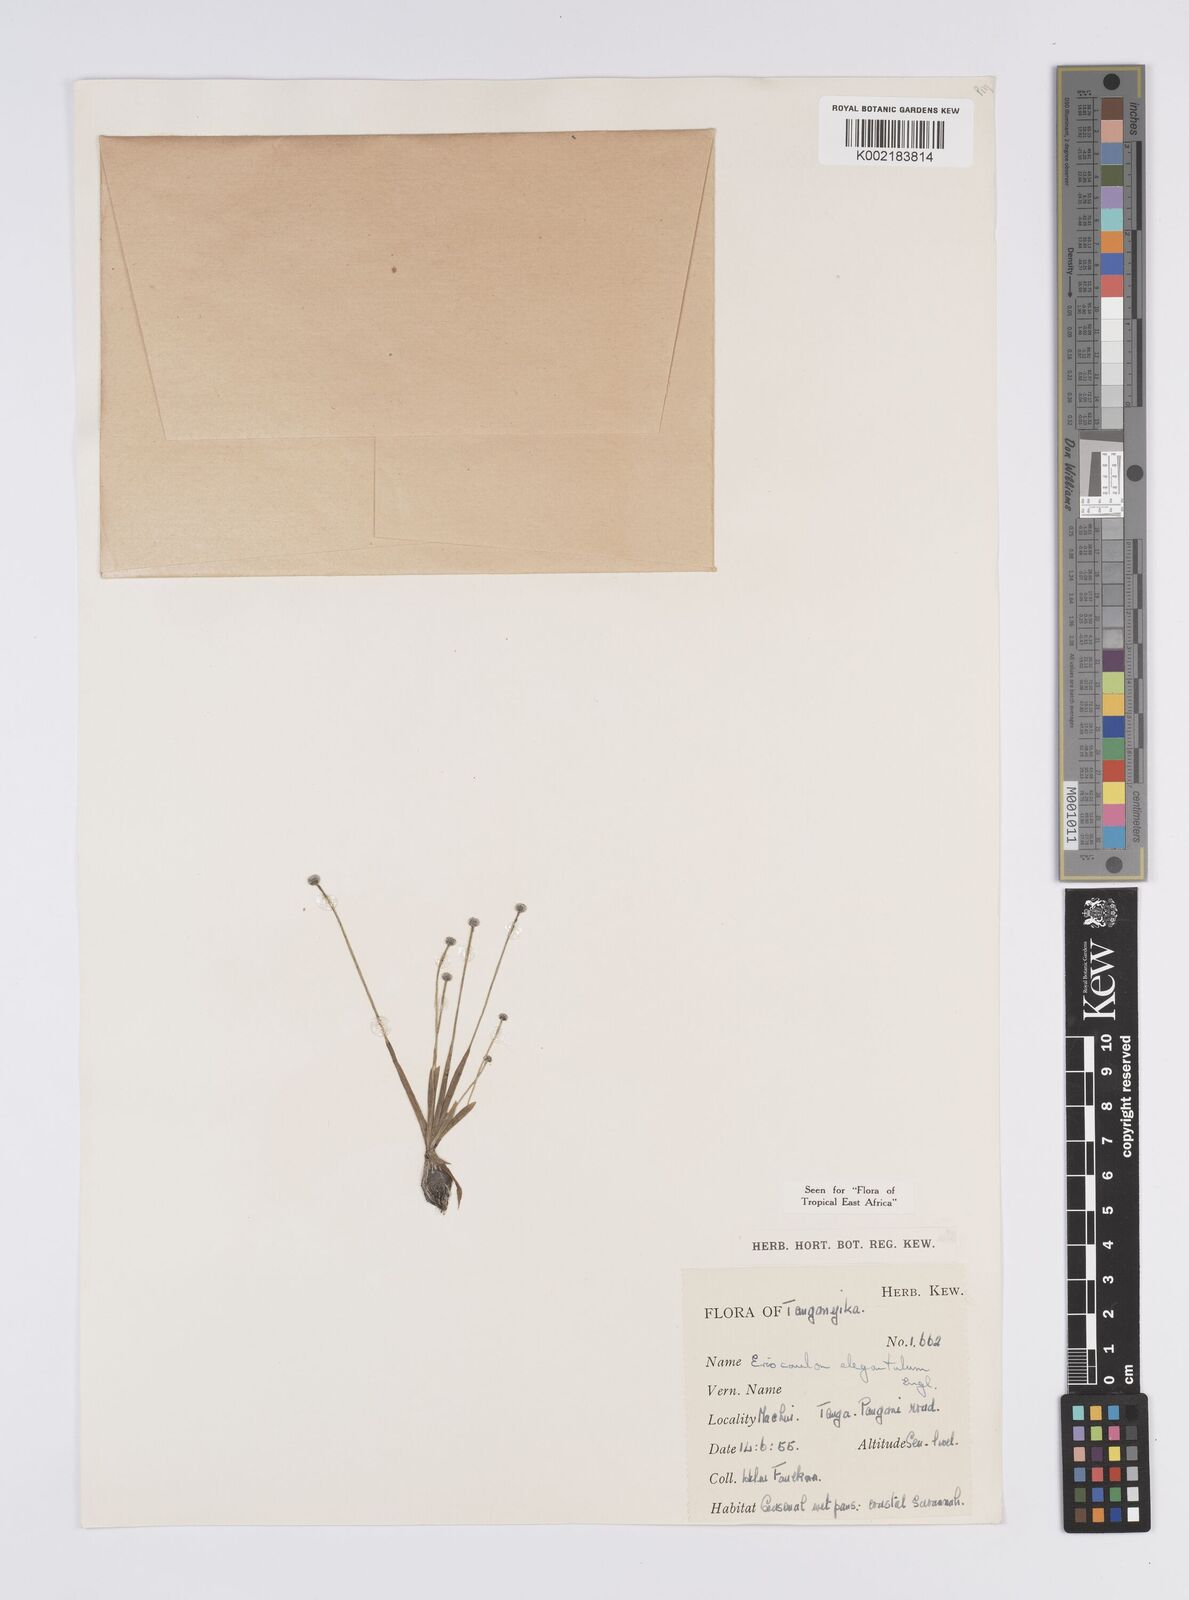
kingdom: Plantae
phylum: Tracheophyta
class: Liliopsida
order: Poales
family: Eriocaulaceae
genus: Eriocaulon
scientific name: Eriocaulon elegantulum
